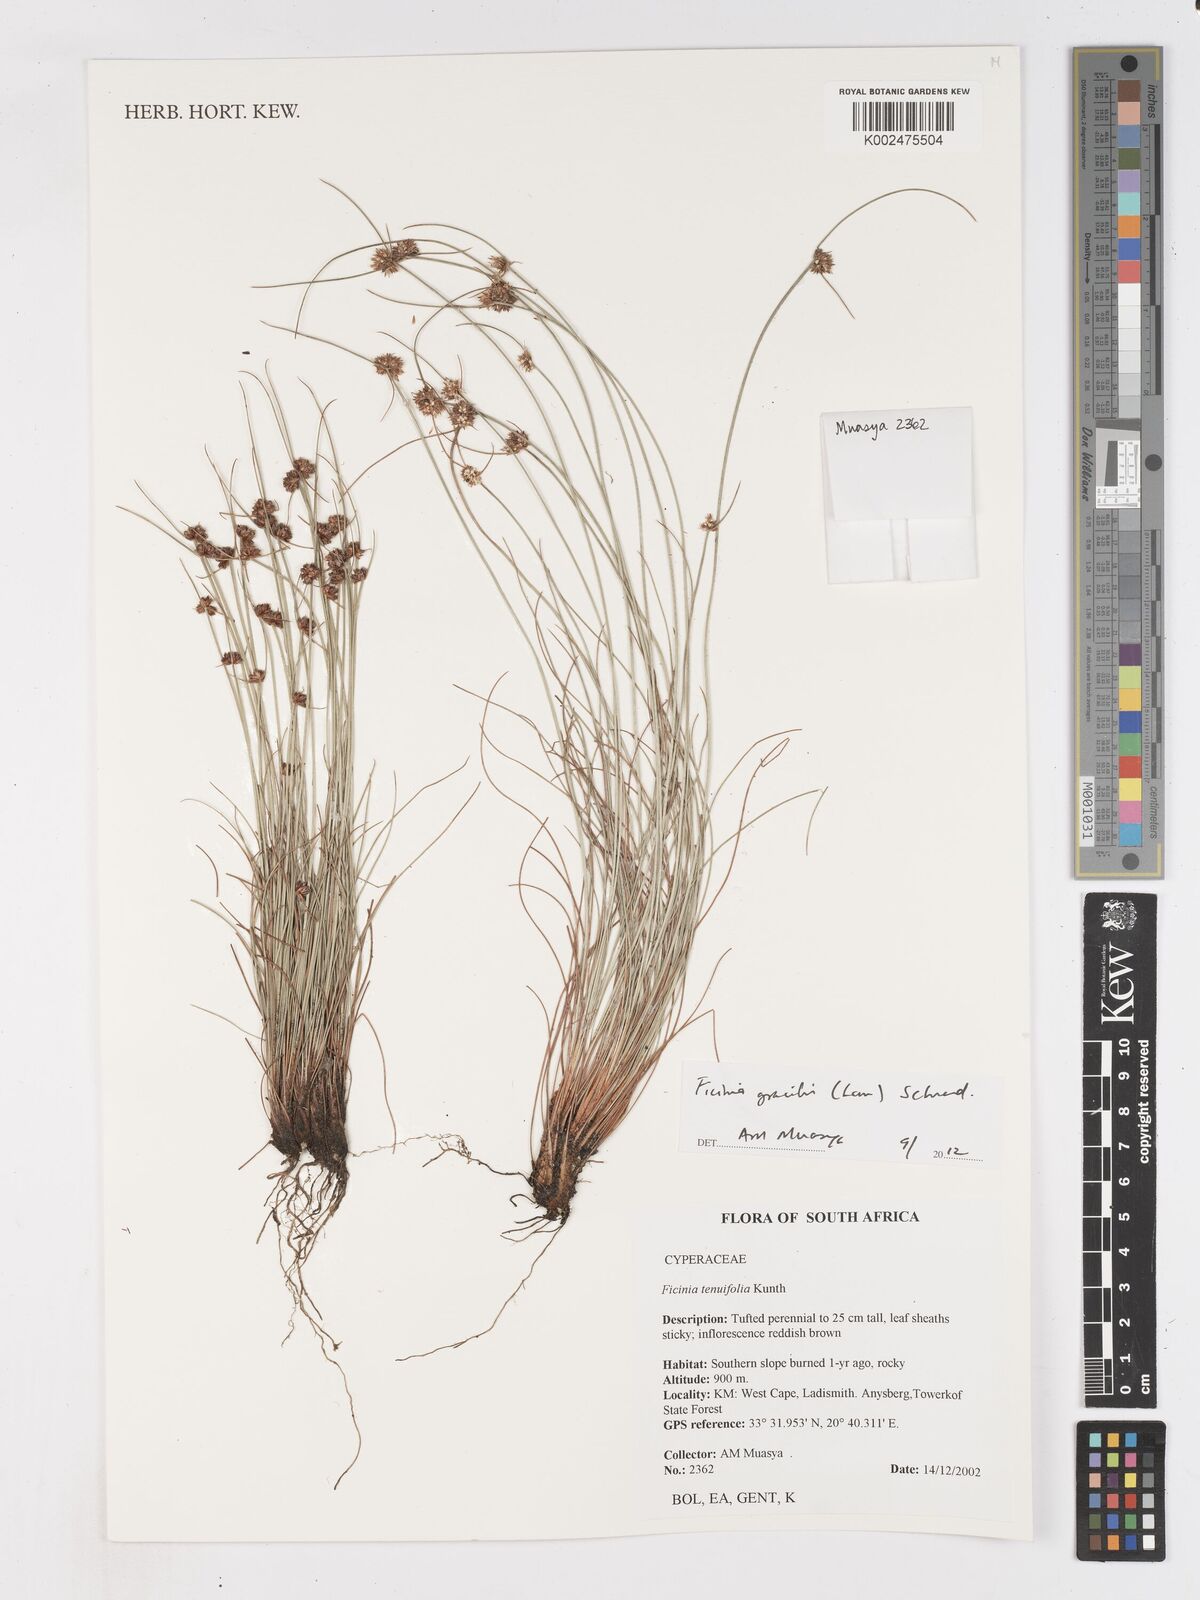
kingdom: Plantae
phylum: Tracheophyta
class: Liliopsida
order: Poales
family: Cyperaceae
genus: Ficinia
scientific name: Ficinia gracilis
